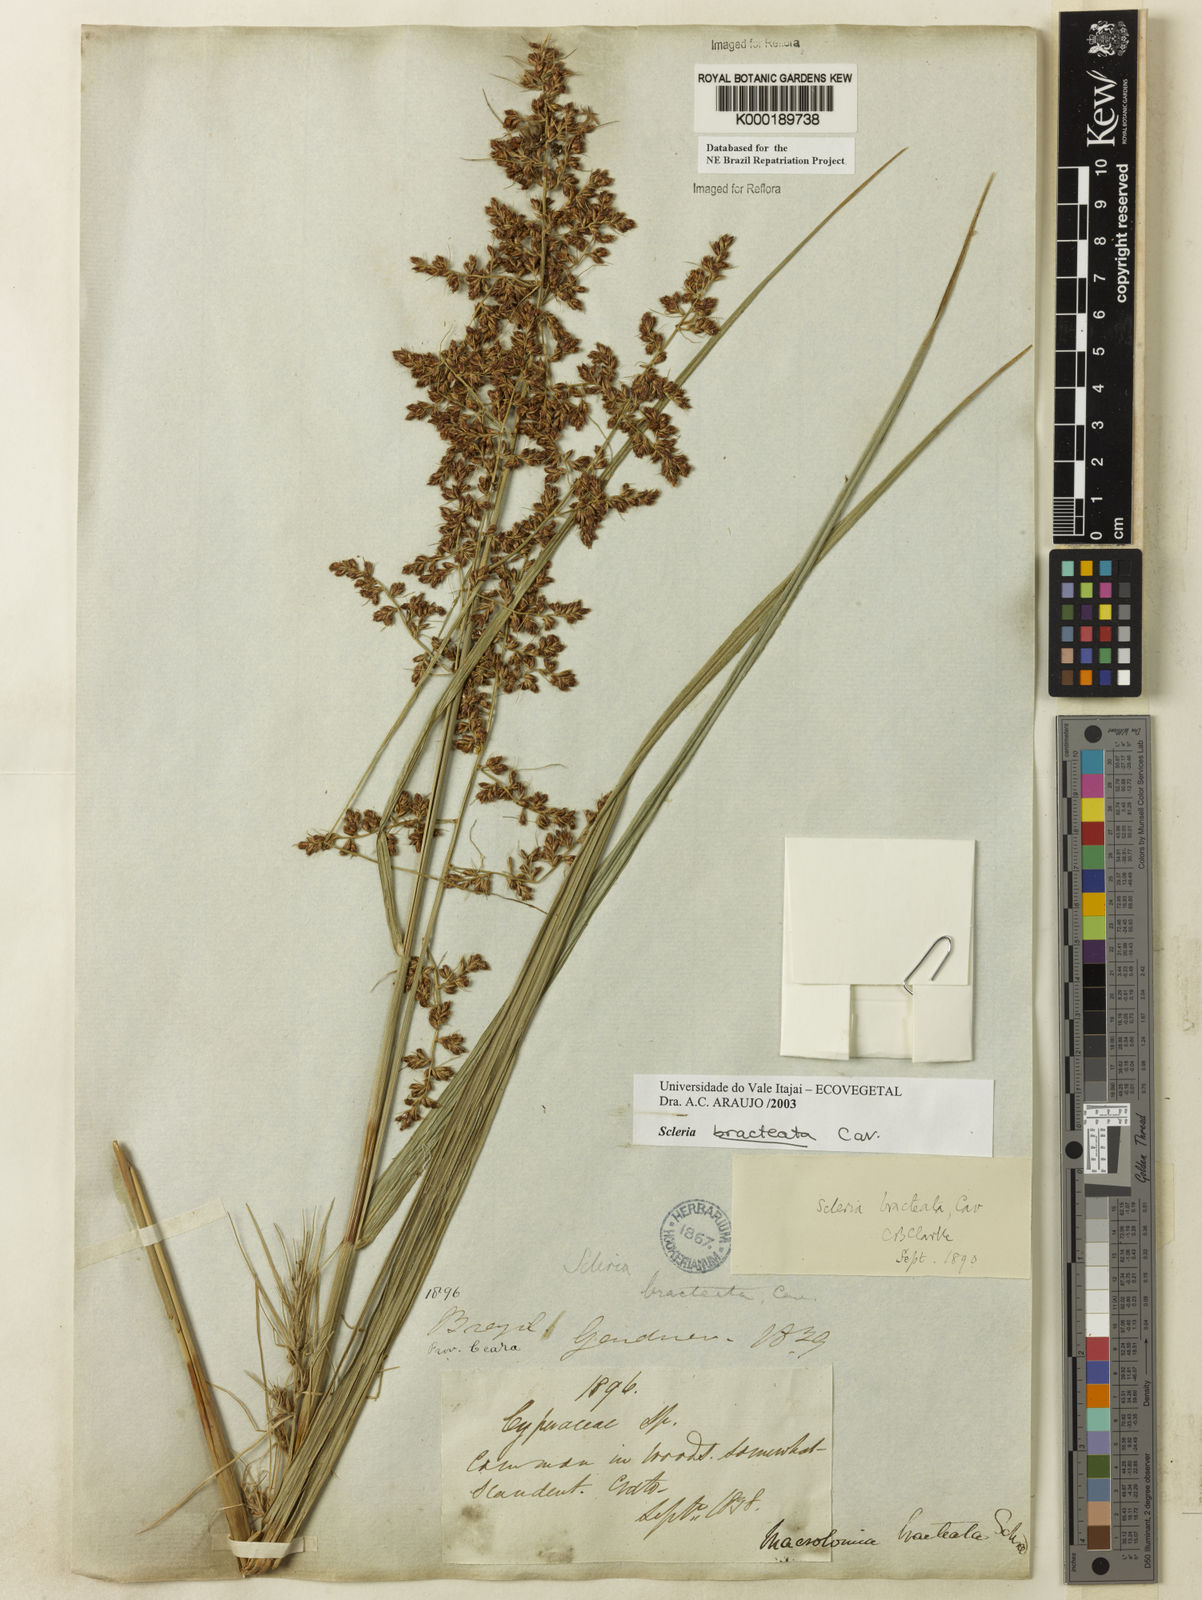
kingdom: Plantae
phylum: Tracheophyta
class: Liliopsida
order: Poales
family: Cyperaceae
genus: Scleria
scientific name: Scleria bracteata
